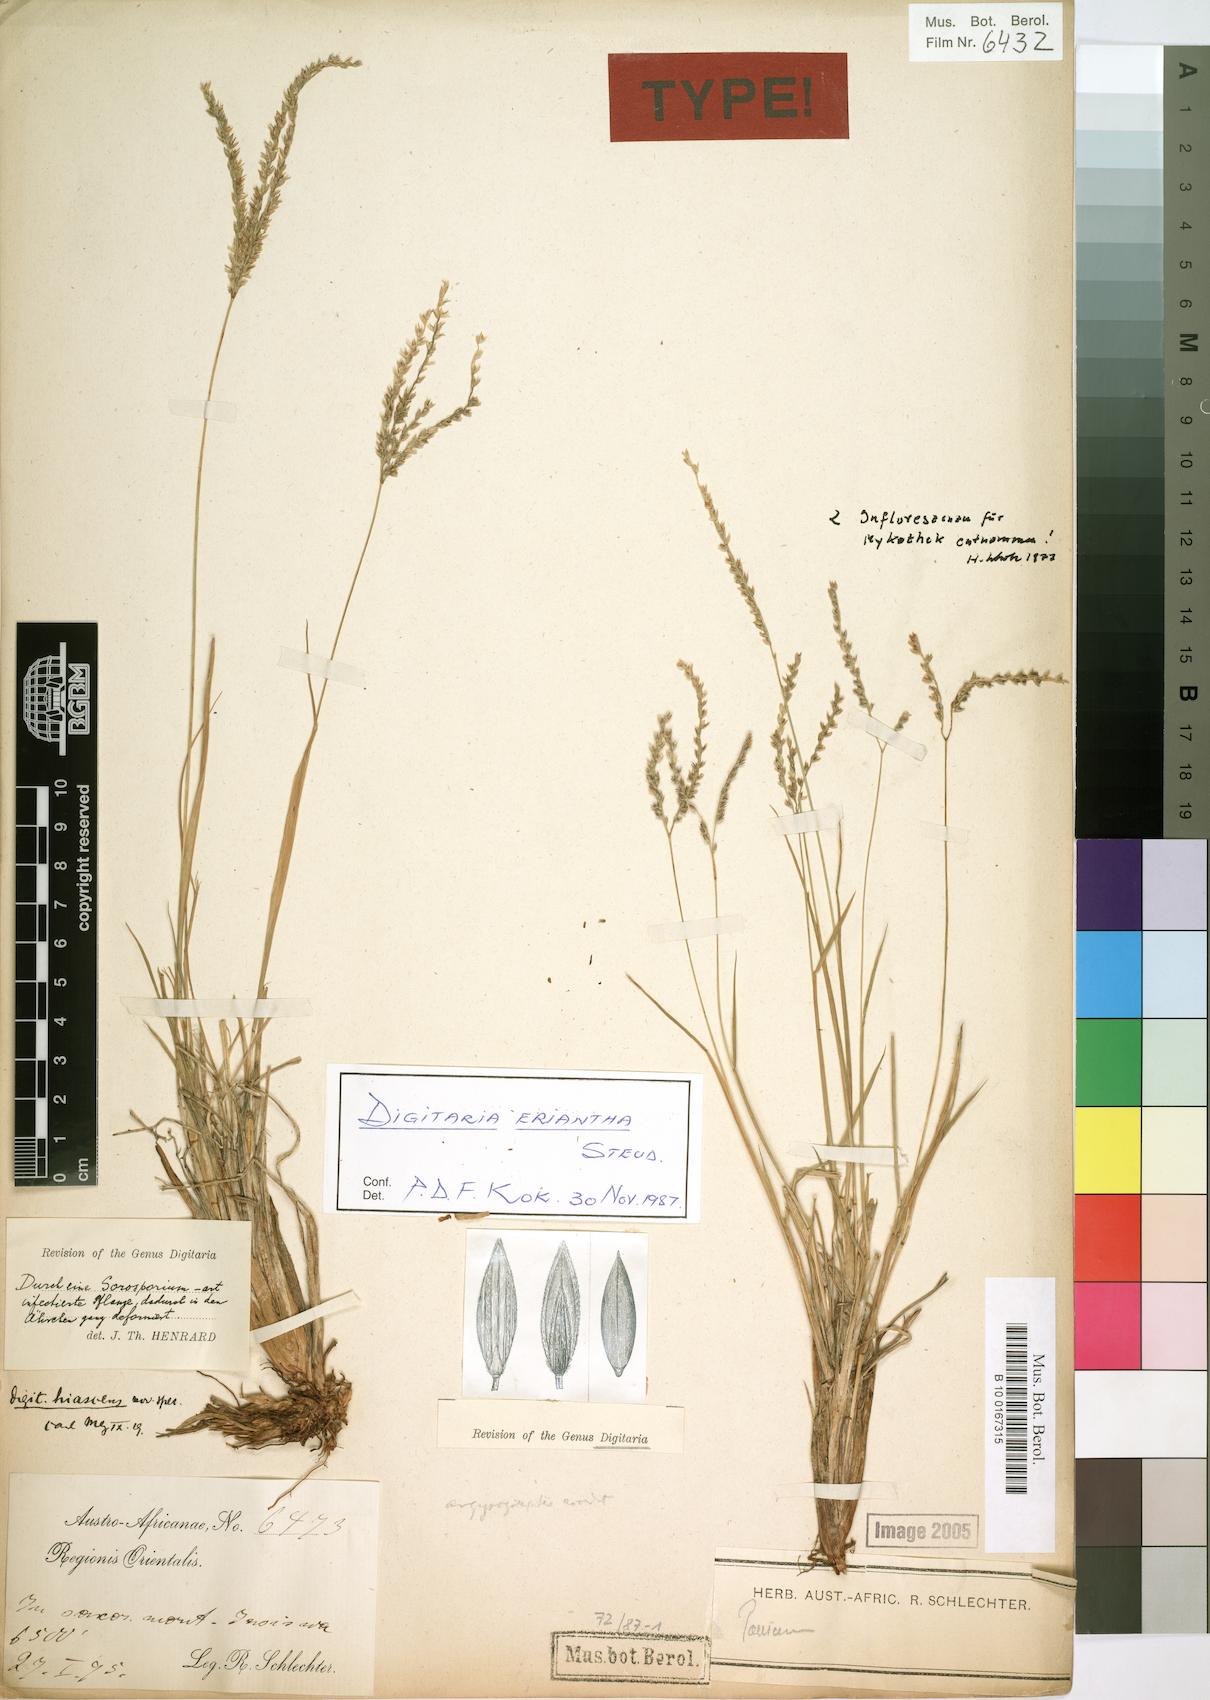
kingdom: Plantae
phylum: Tracheophyta
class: Liliopsida
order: Poales
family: Poaceae
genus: Digitaria
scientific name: Digitaria eriantha
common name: Digitgrass
